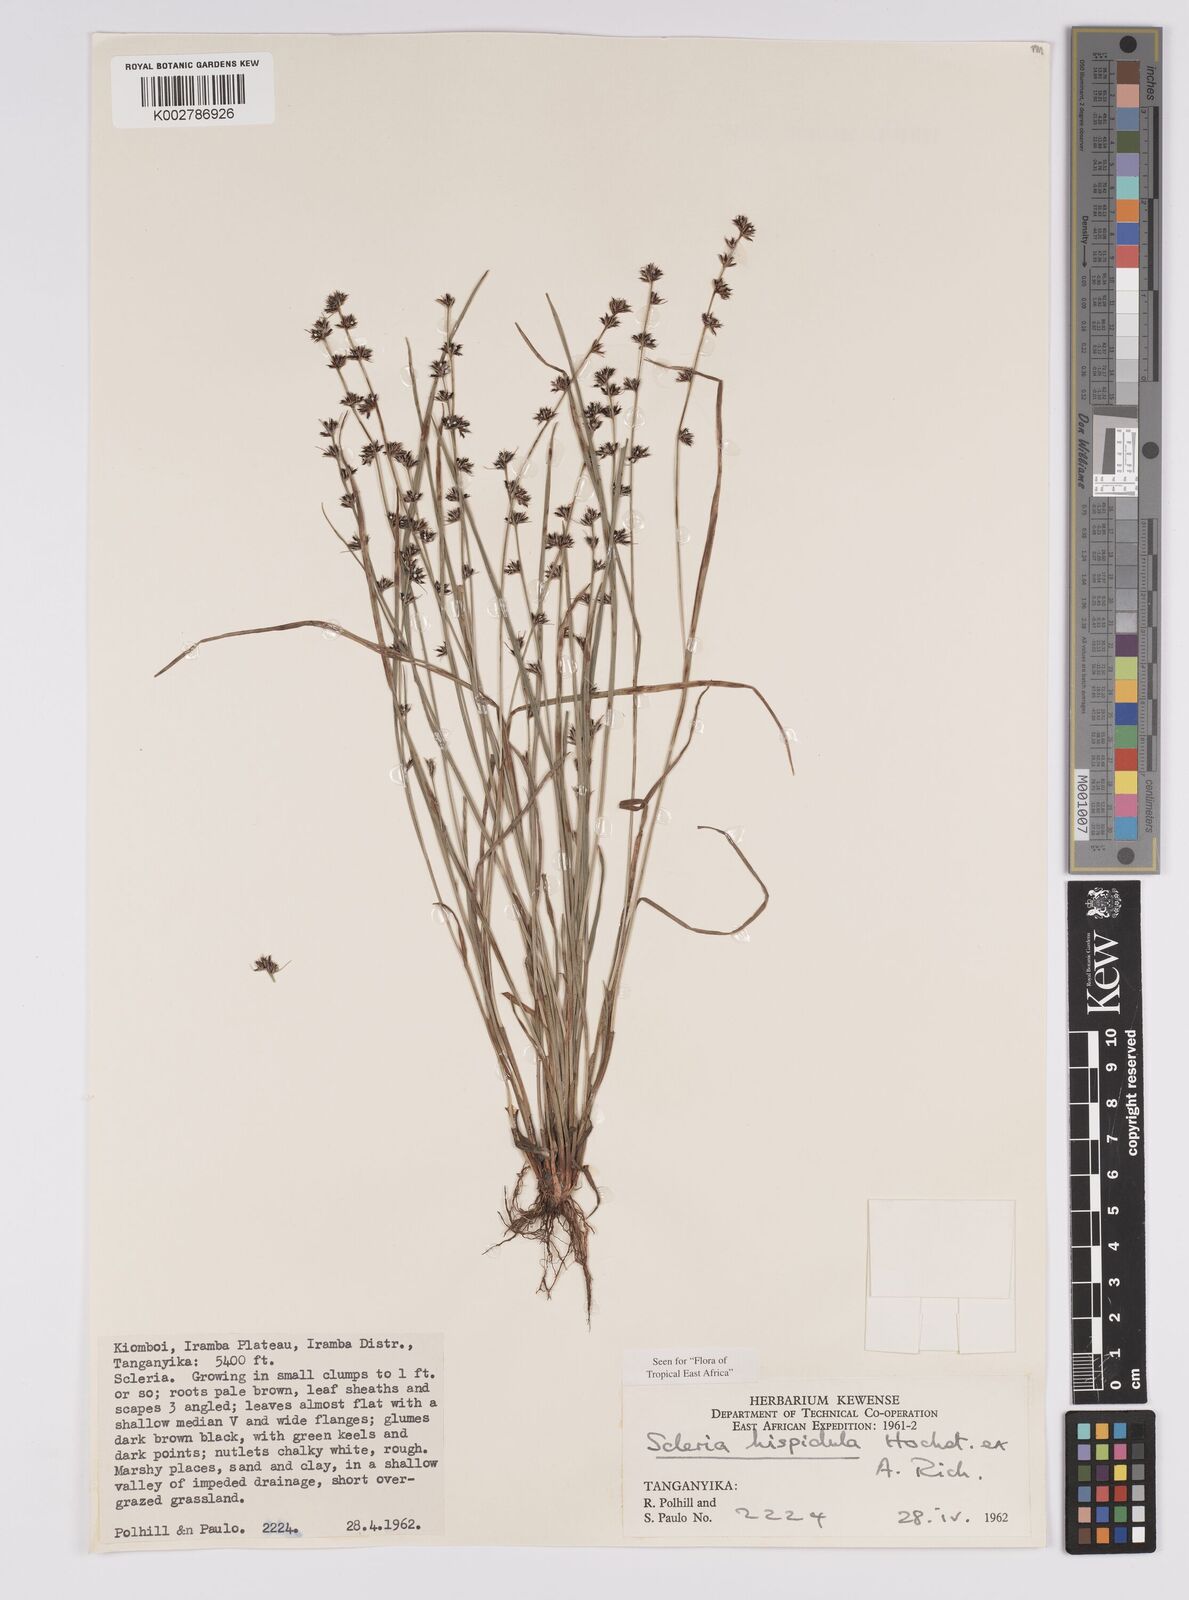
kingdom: Plantae
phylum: Tracheophyta
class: Liliopsida
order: Poales
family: Cyperaceae
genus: Scleria
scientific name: Scleria hispidula
